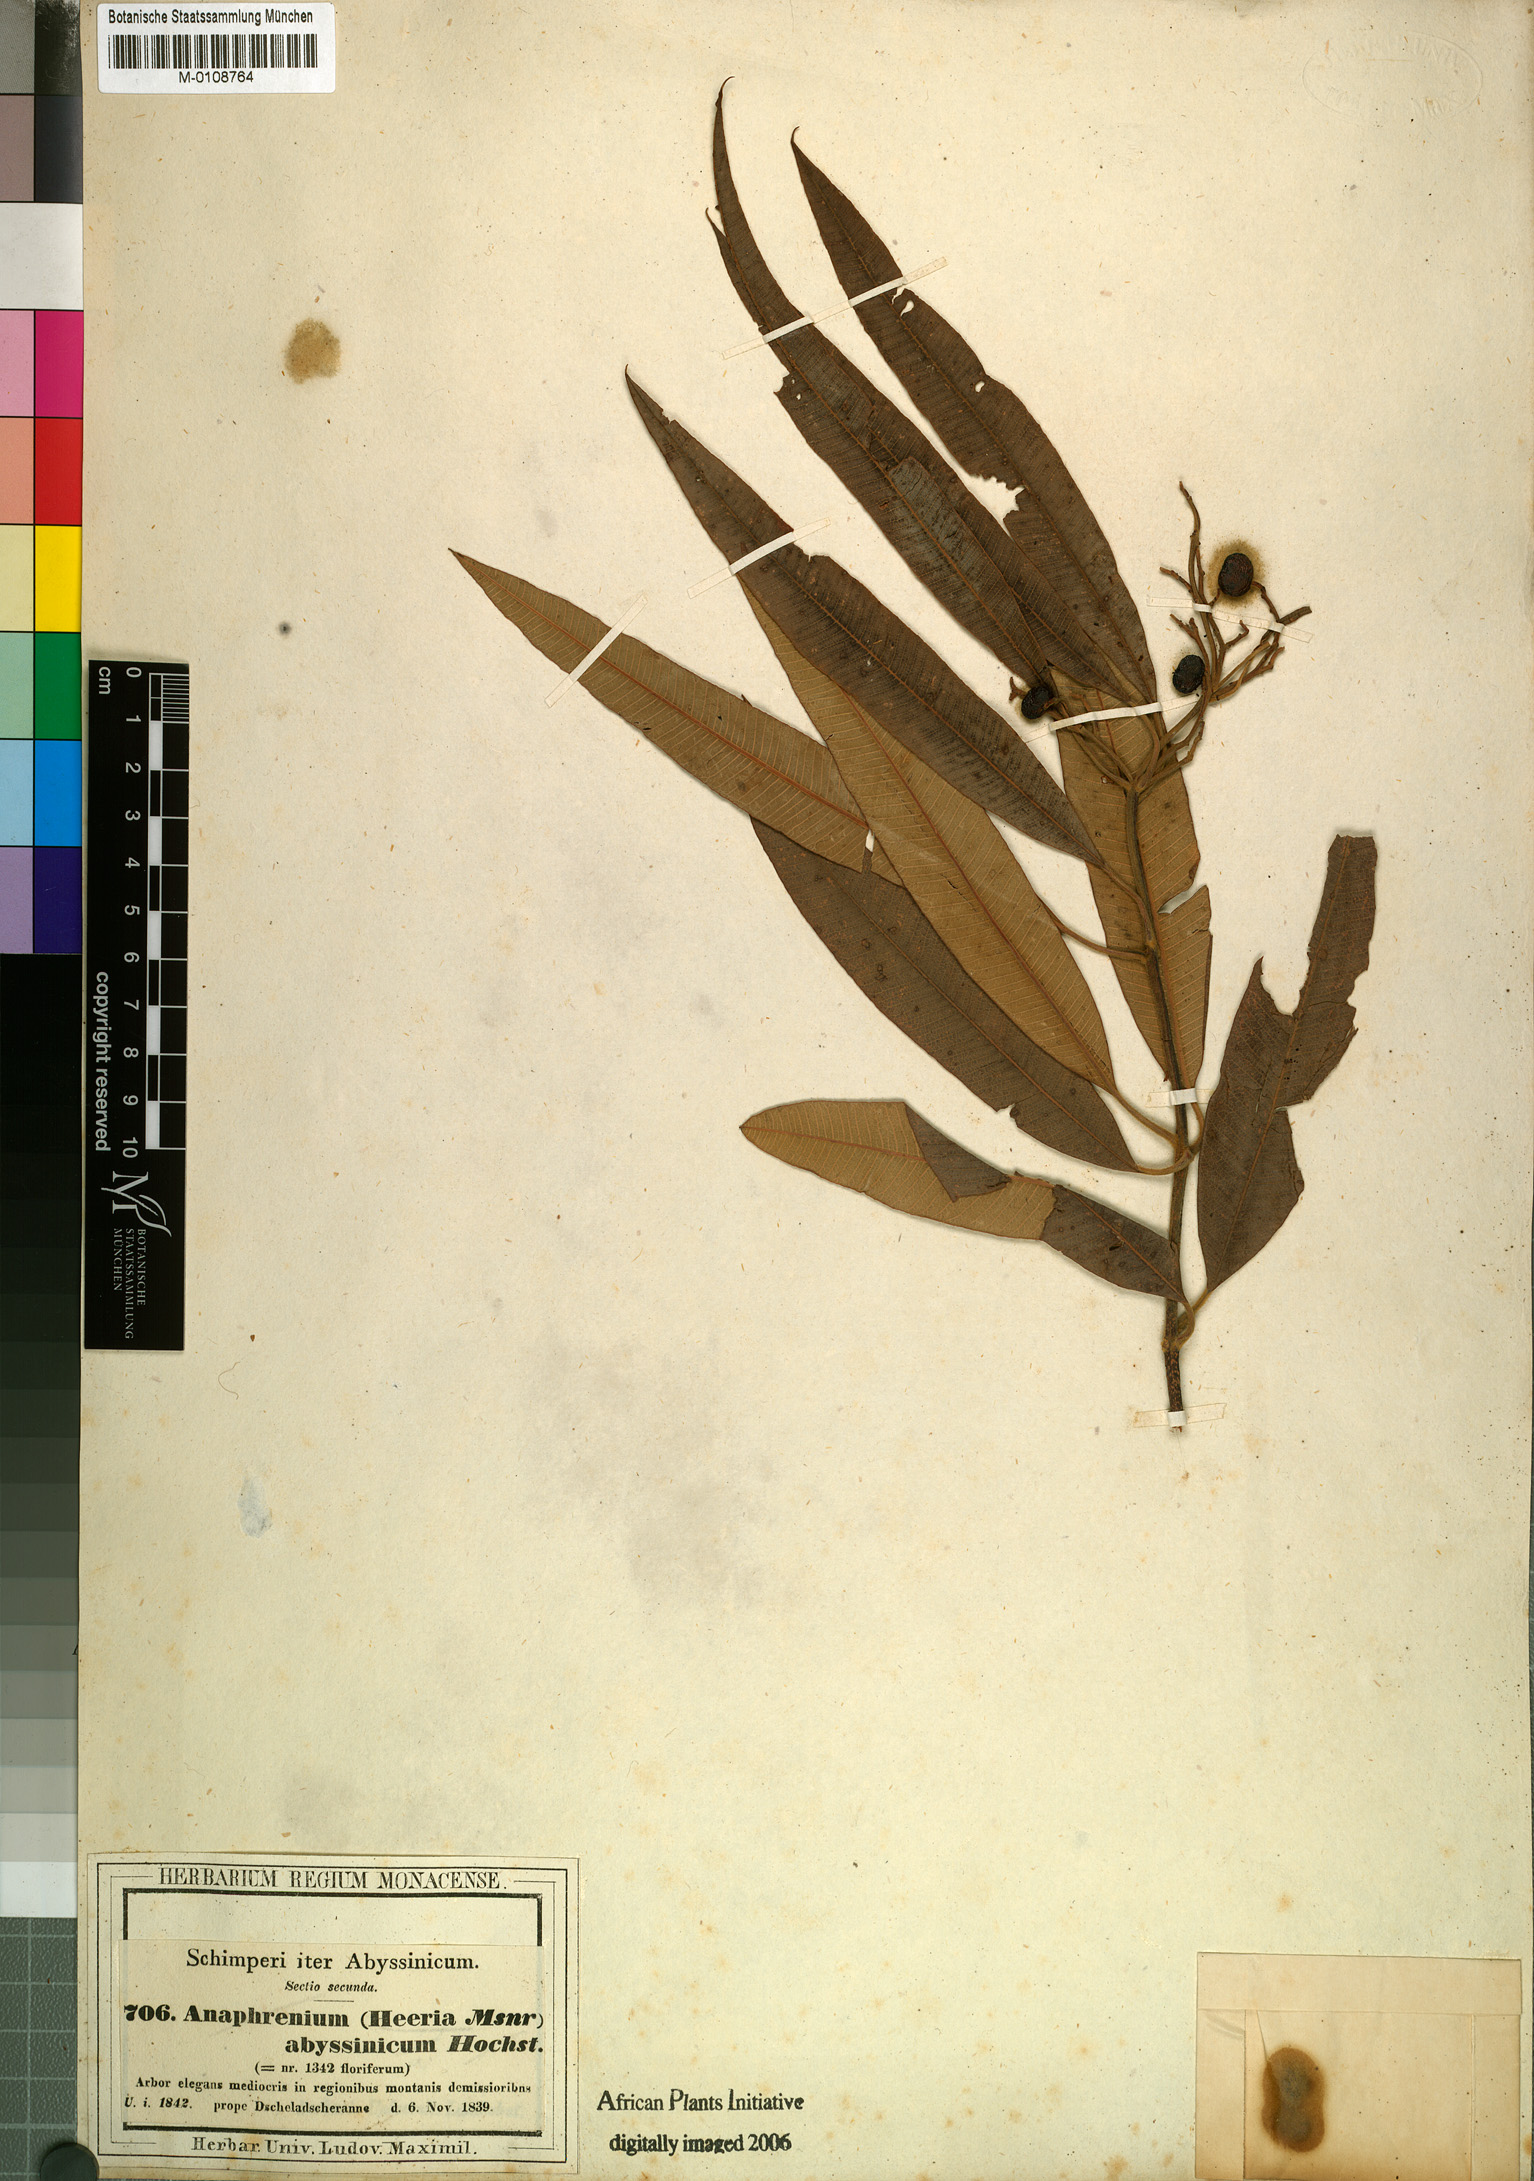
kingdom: Plantae
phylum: Tracheophyta
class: Magnoliopsida
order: Sapindales
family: Anacardiaceae
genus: Ozoroa
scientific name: Ozoroa insignis
